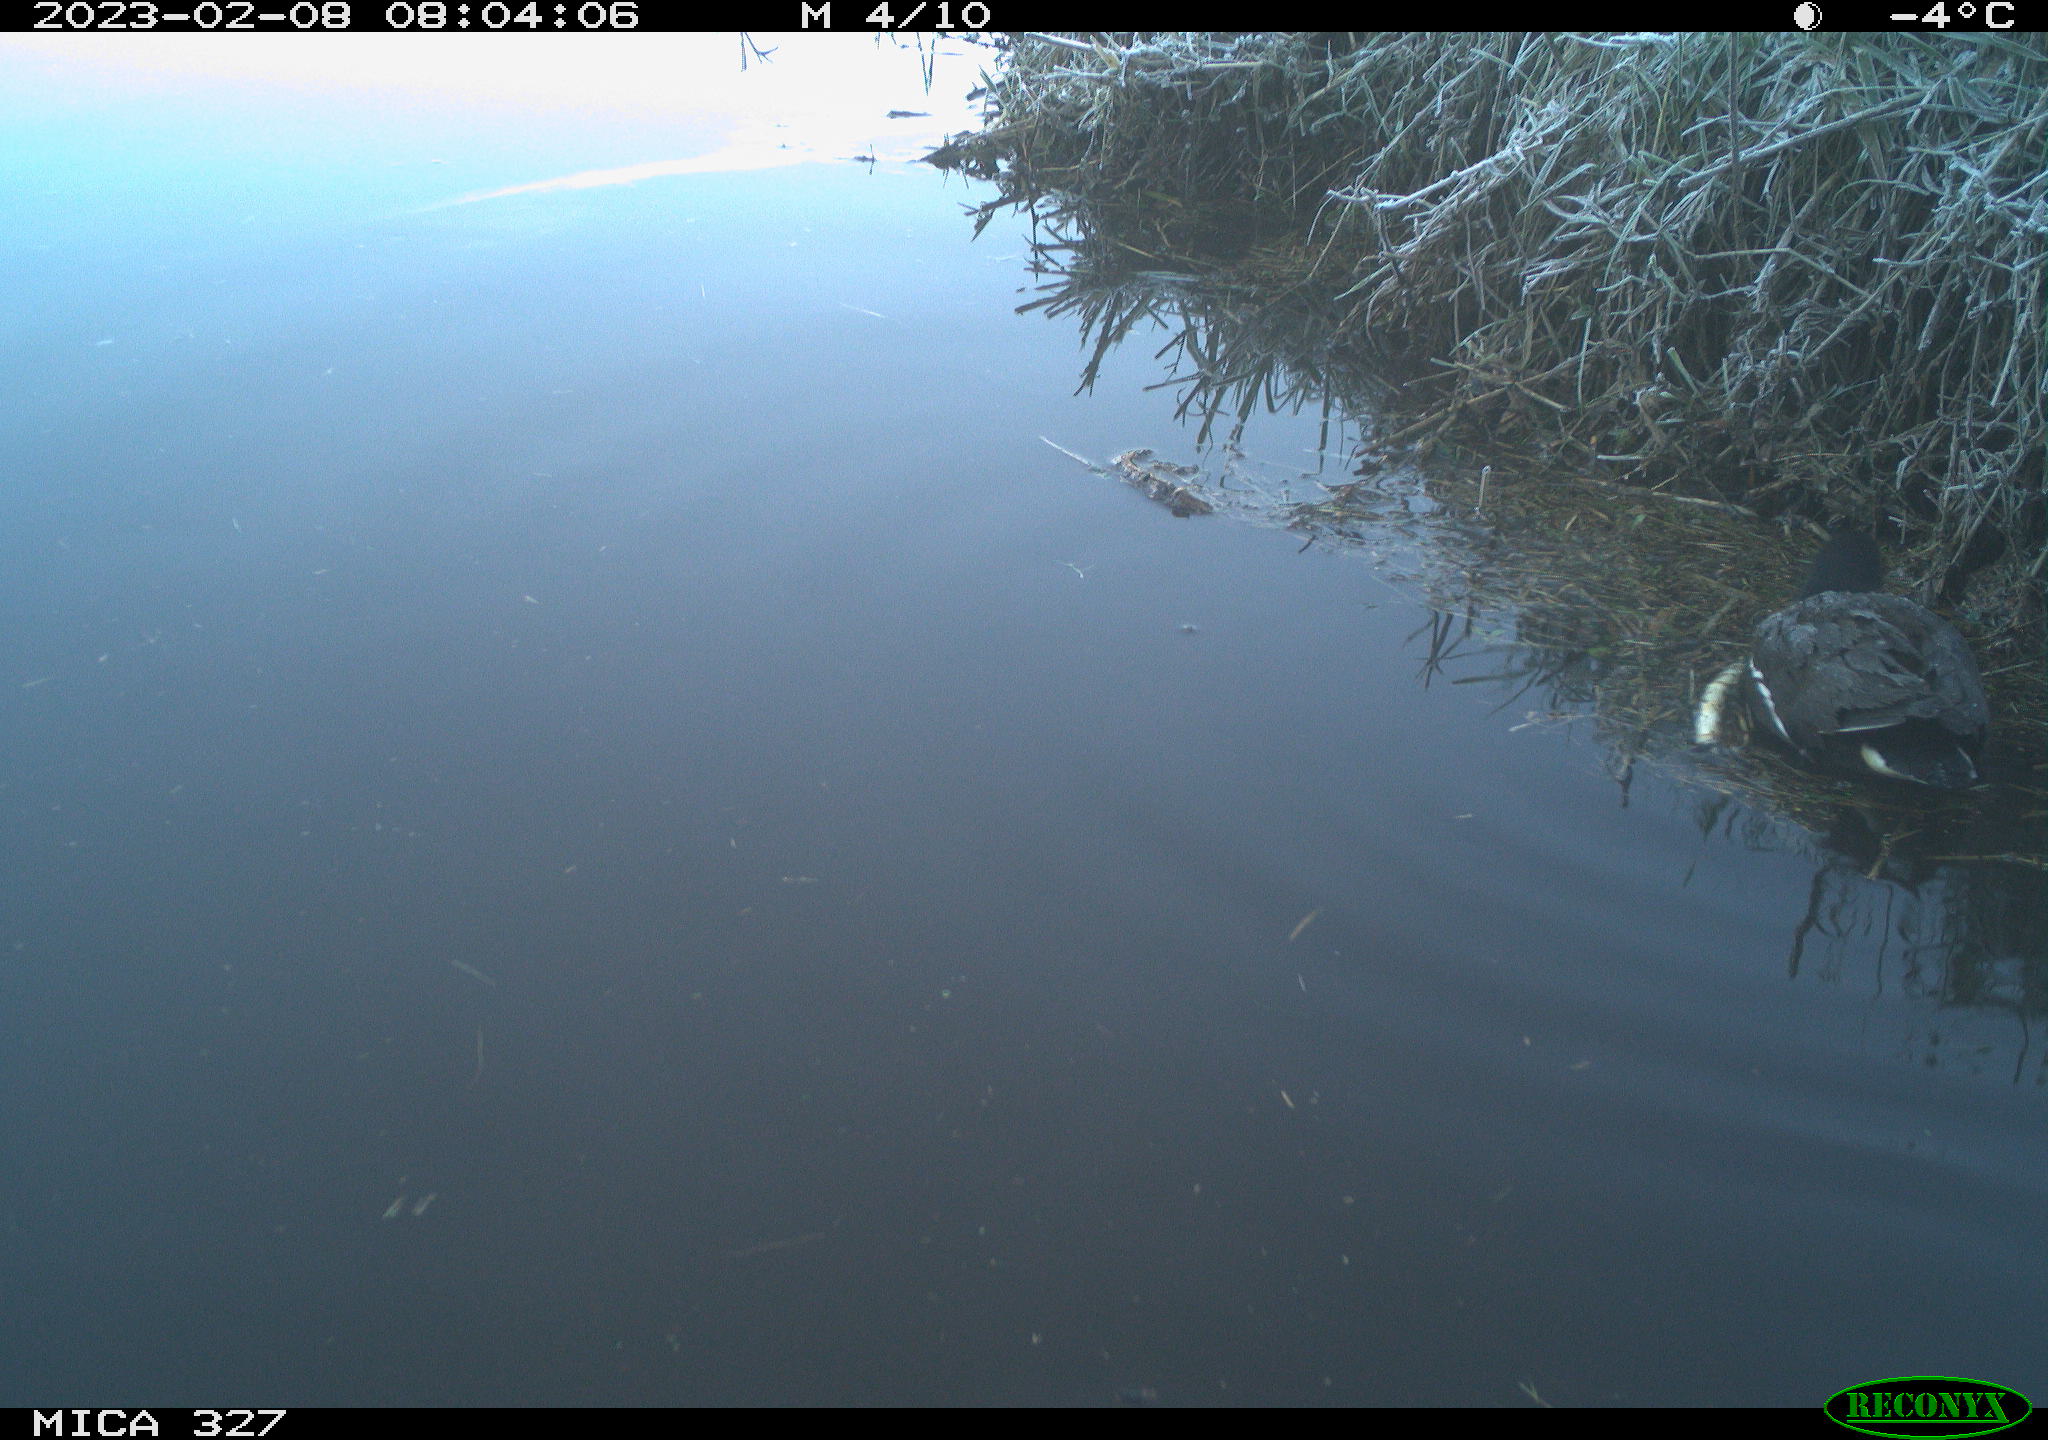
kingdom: Animalia
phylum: Chordata
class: Aves
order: Gruiformes
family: Rallidae
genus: Gallinula
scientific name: Gallinula chloropus
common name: Common moorhen
